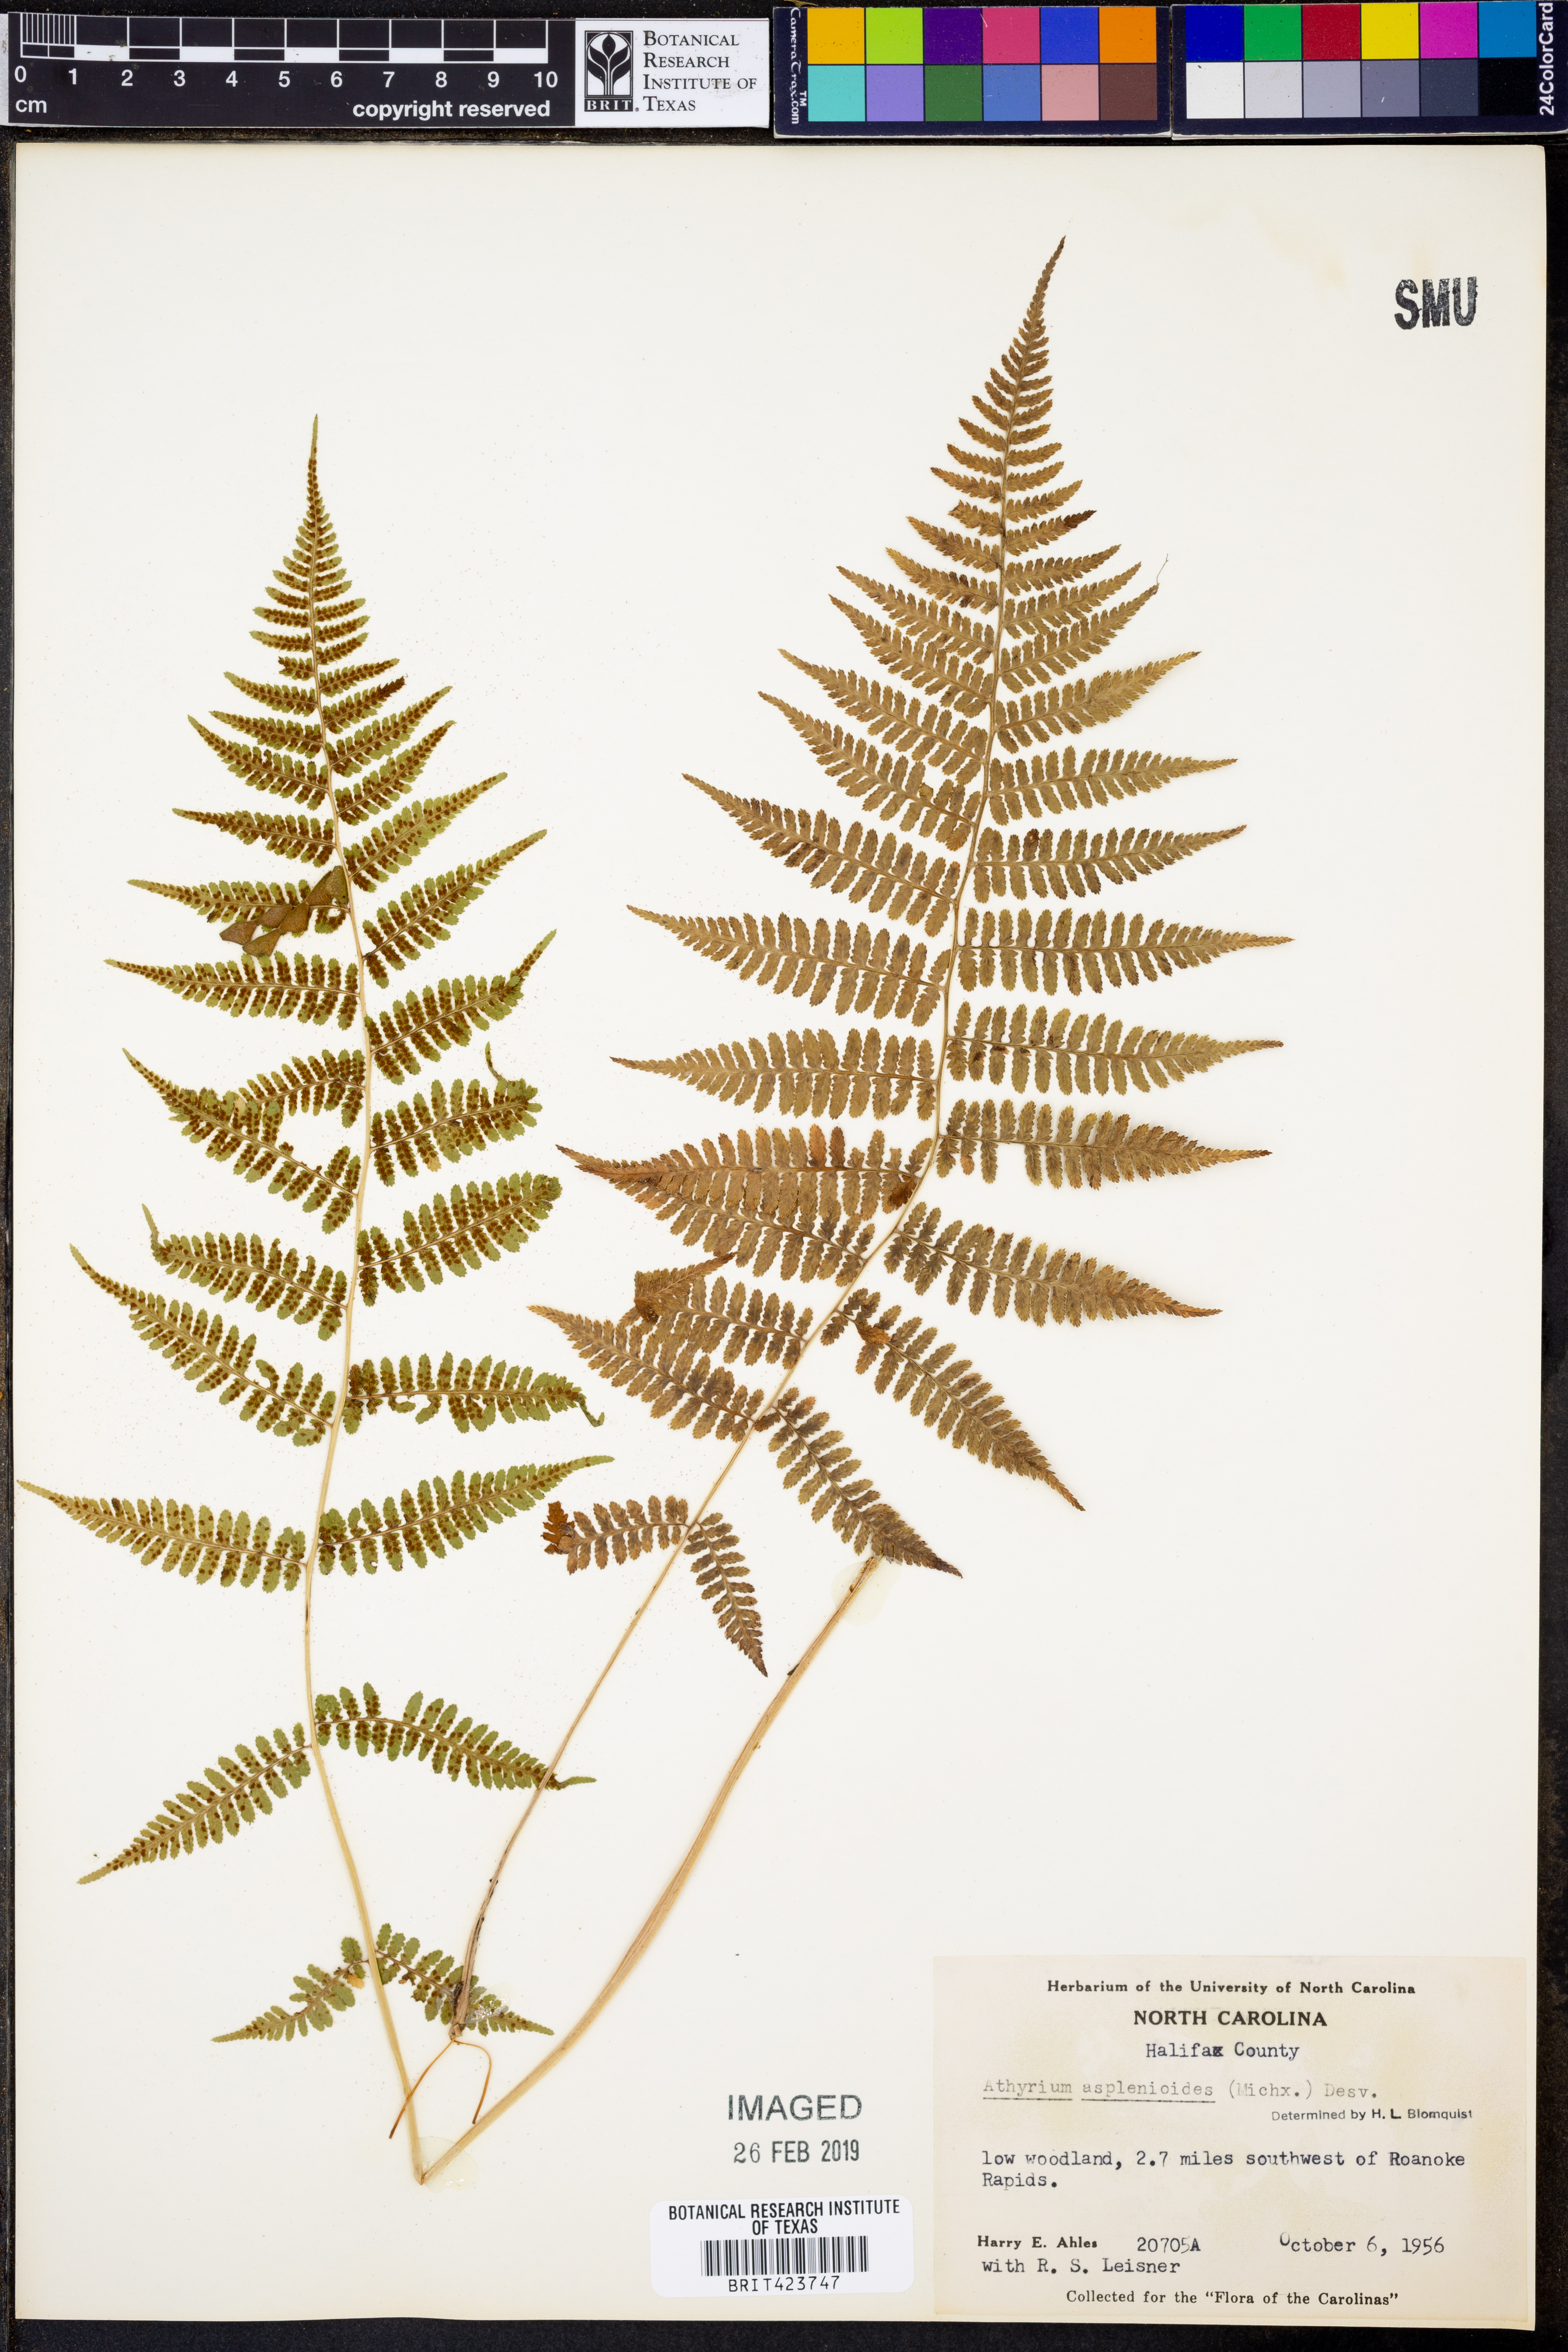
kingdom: Plantae
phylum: Tracheophyta
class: Polypodiopsida
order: Polypodiales
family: Athyriaceae
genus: Athyrium
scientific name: Athyrium asplenioides
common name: Southern lady fern
